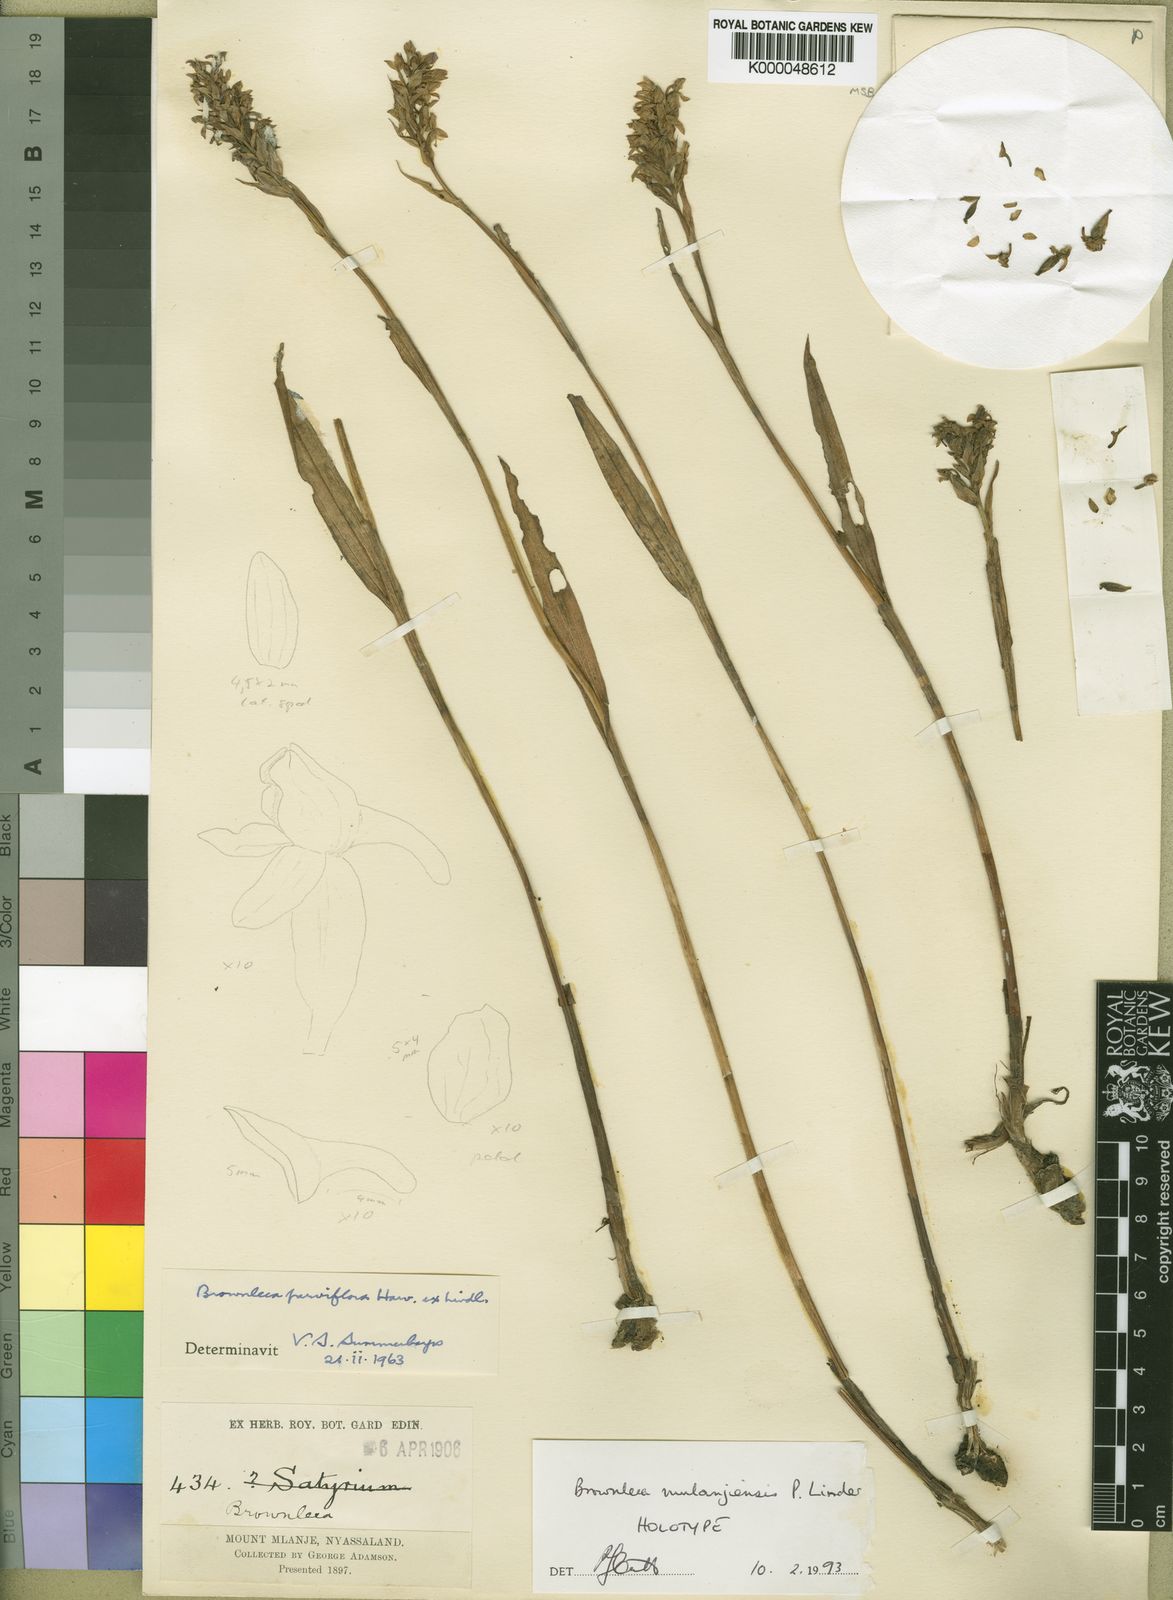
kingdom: Plantae
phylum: Tracheophyta
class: Liliopsida
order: Asparagales
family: Orchidaceae
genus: Brownleea
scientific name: Brownleea mulanjiensis
